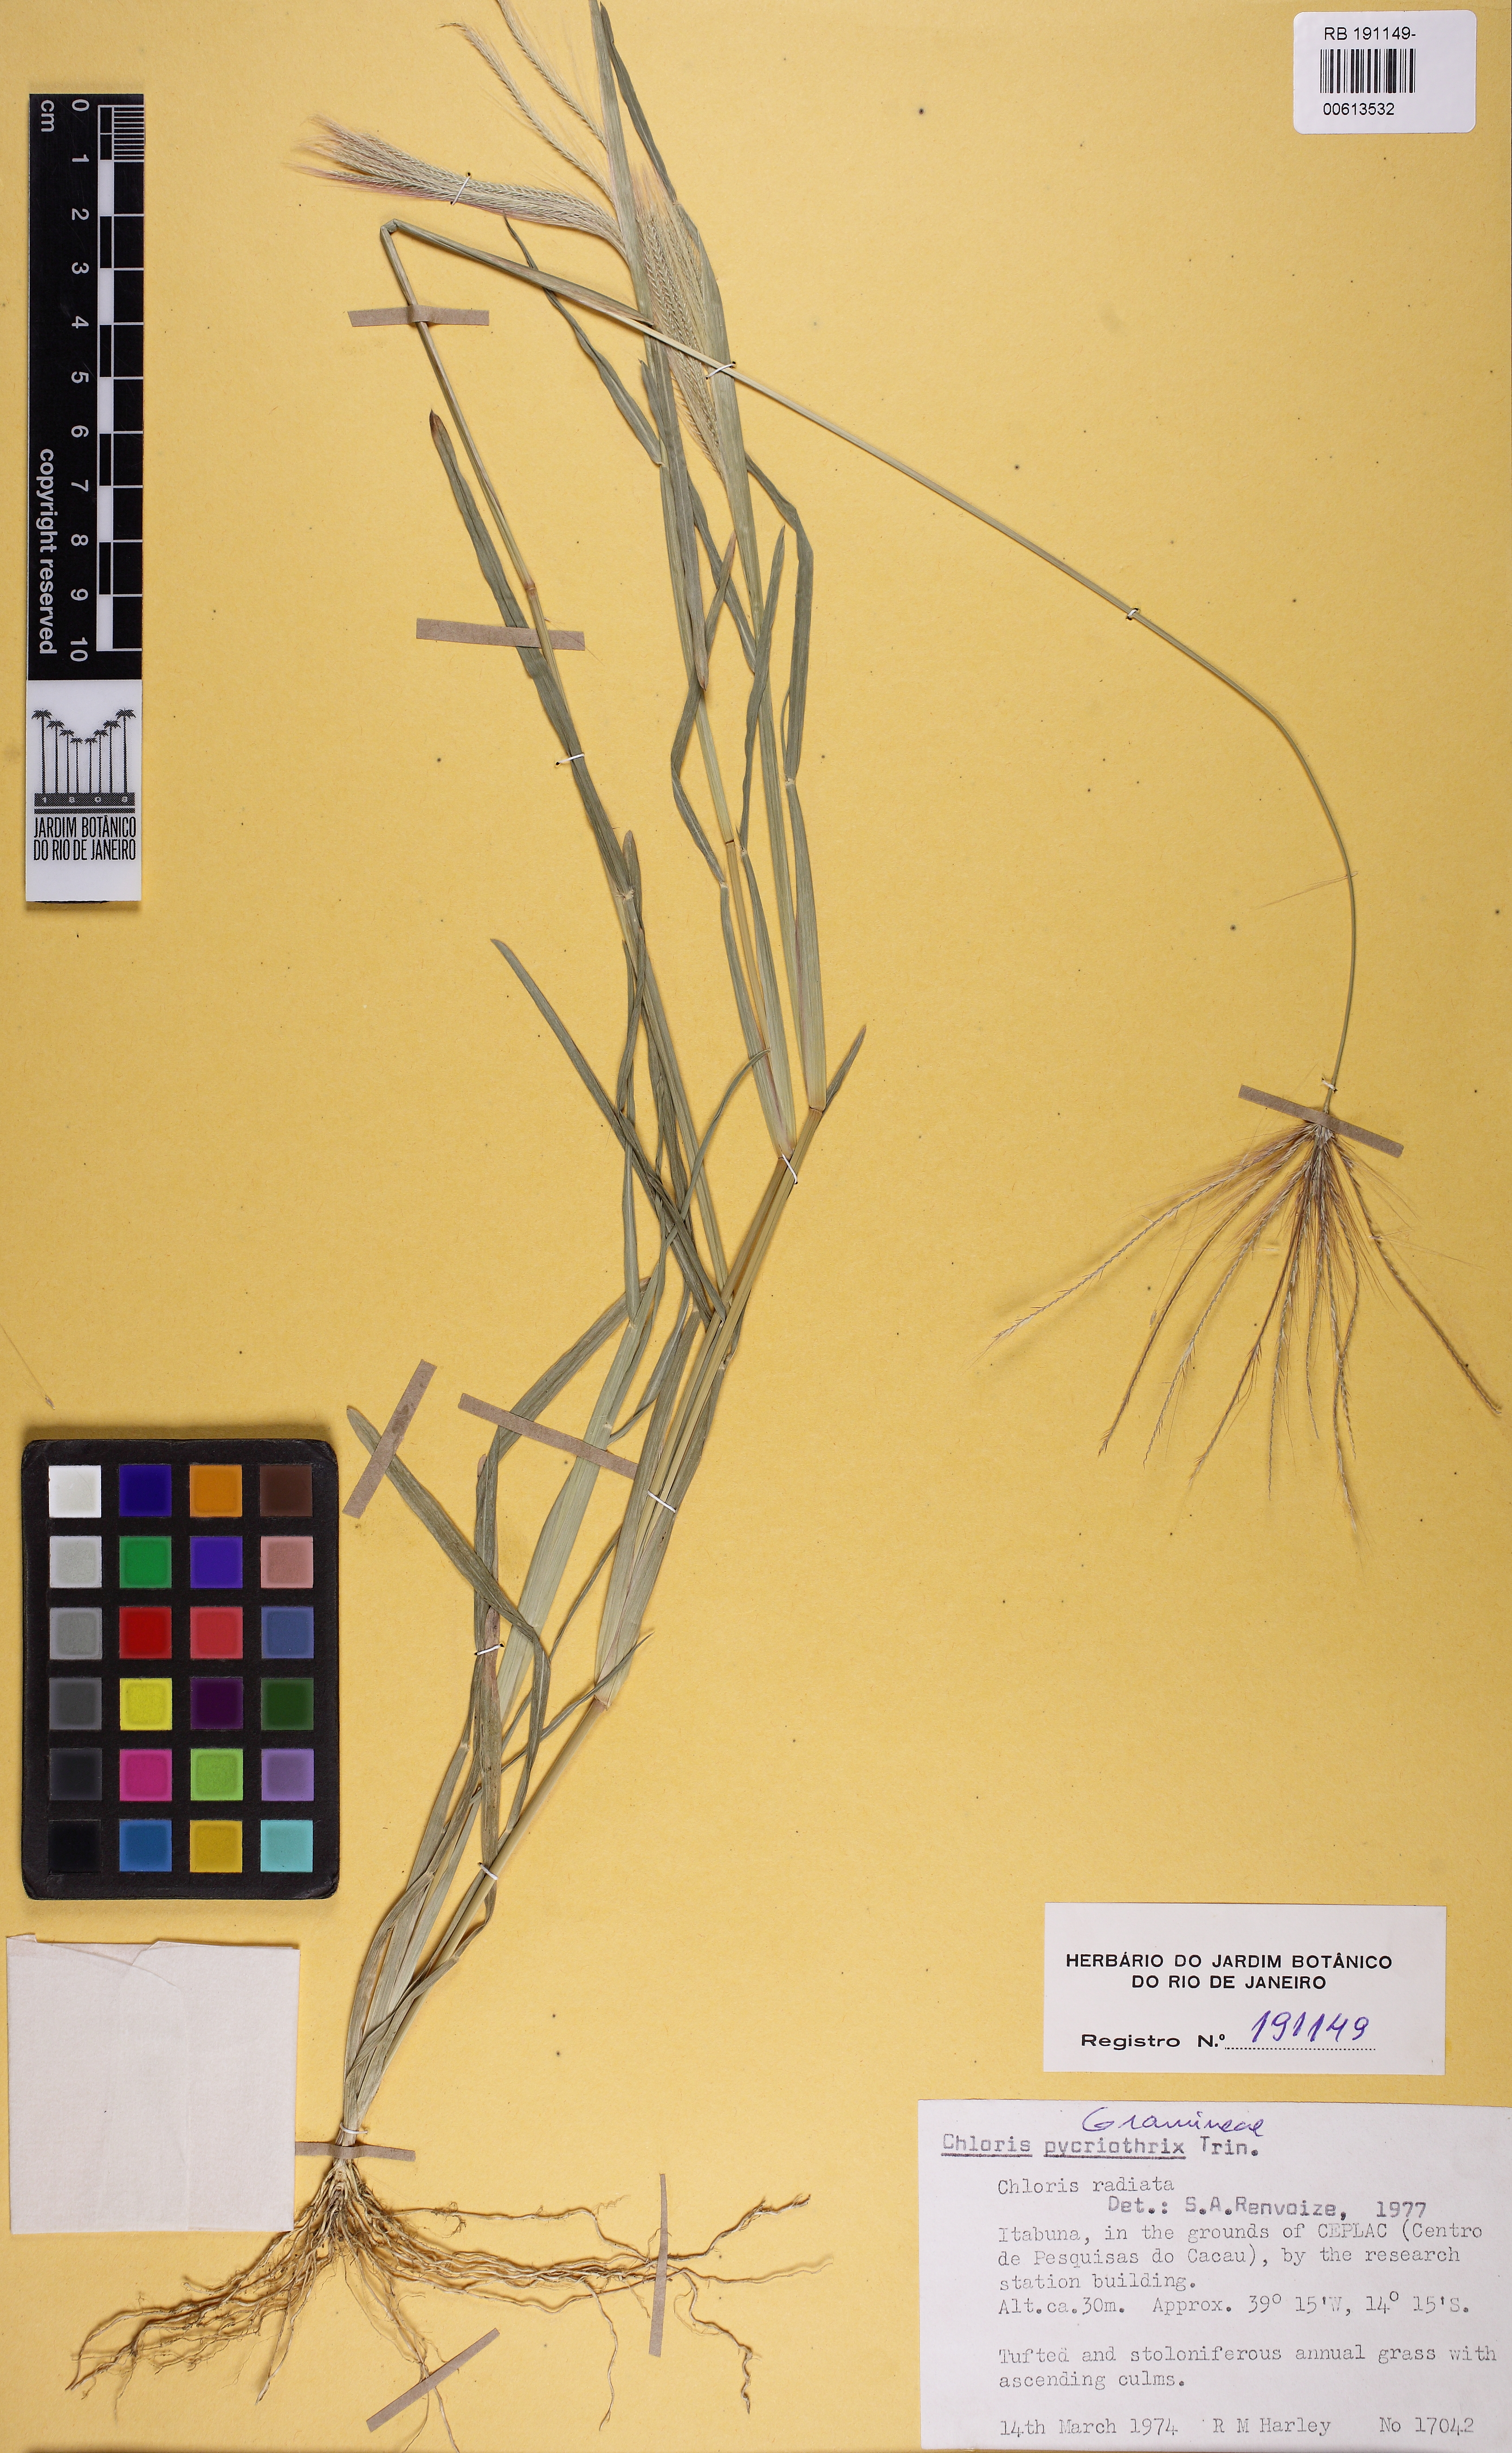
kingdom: Plantae
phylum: Tracheophyta
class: Liliopsida
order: Poales
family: Poaceae
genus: Chloris
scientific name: Chloris pycnothrix
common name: Spiderweb chloris
